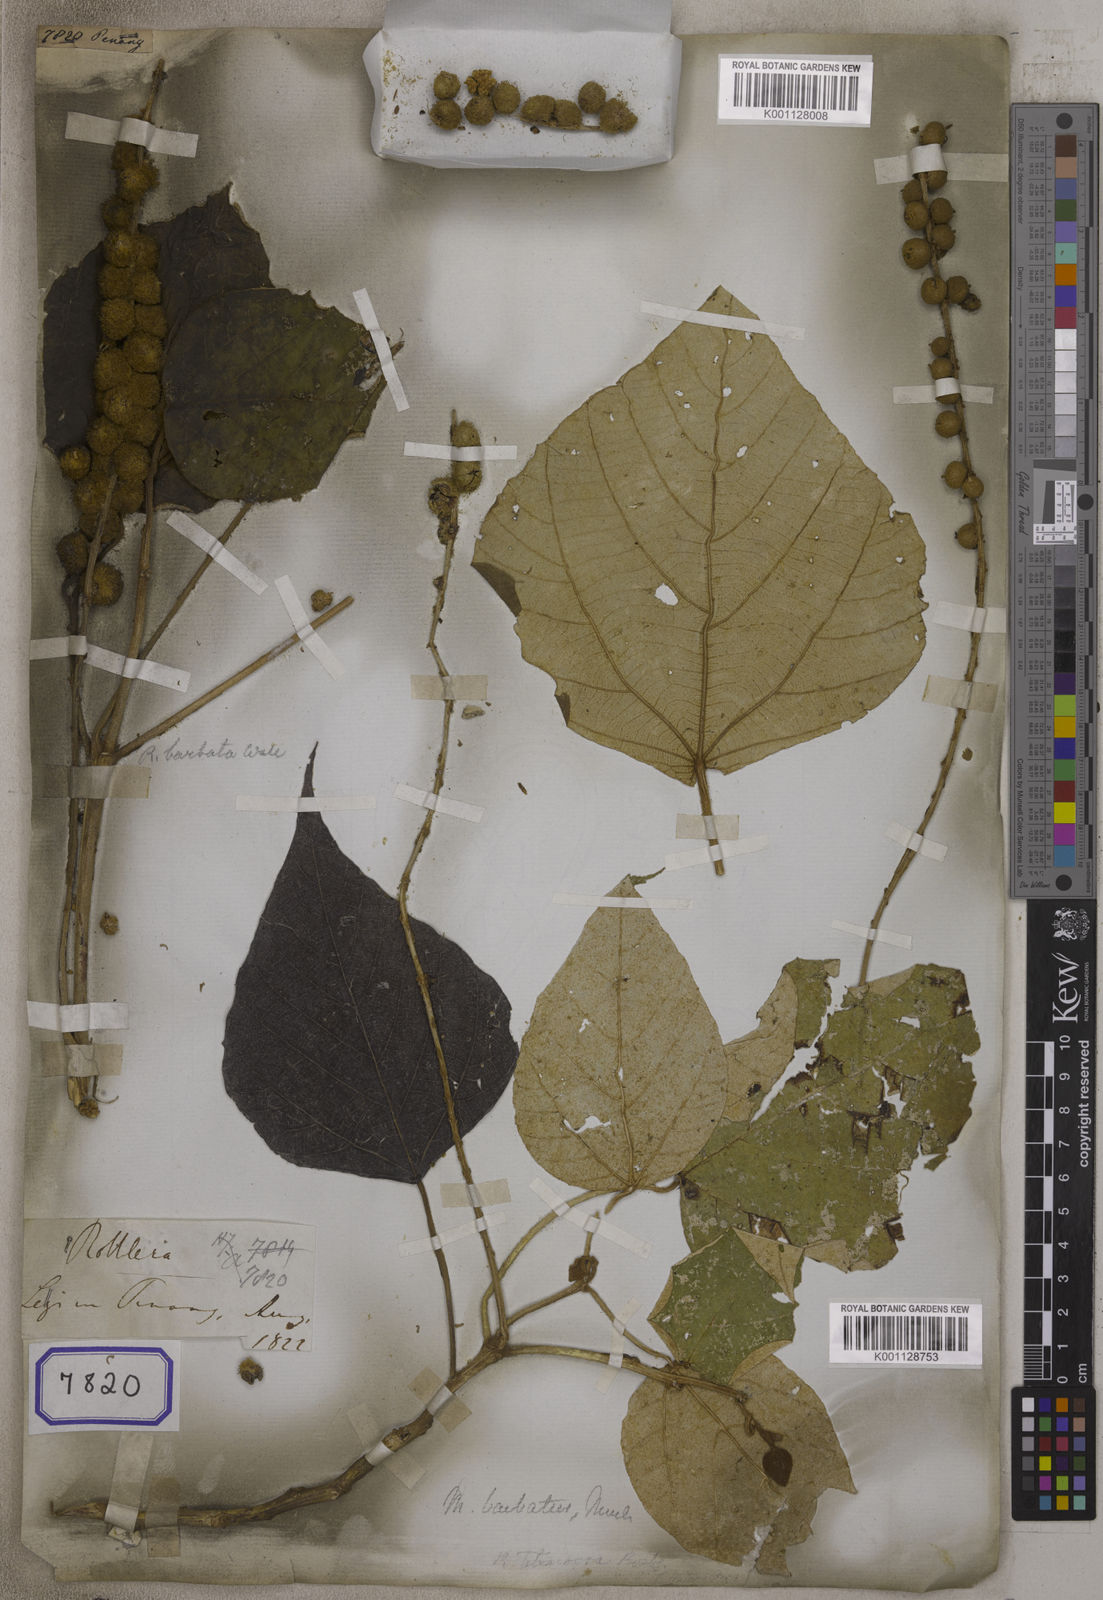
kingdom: Plantae
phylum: Tracheophyta
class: Magnoliopsida
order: Malpighiales
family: Euphorbiaceae
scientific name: Euphorbiaceae
